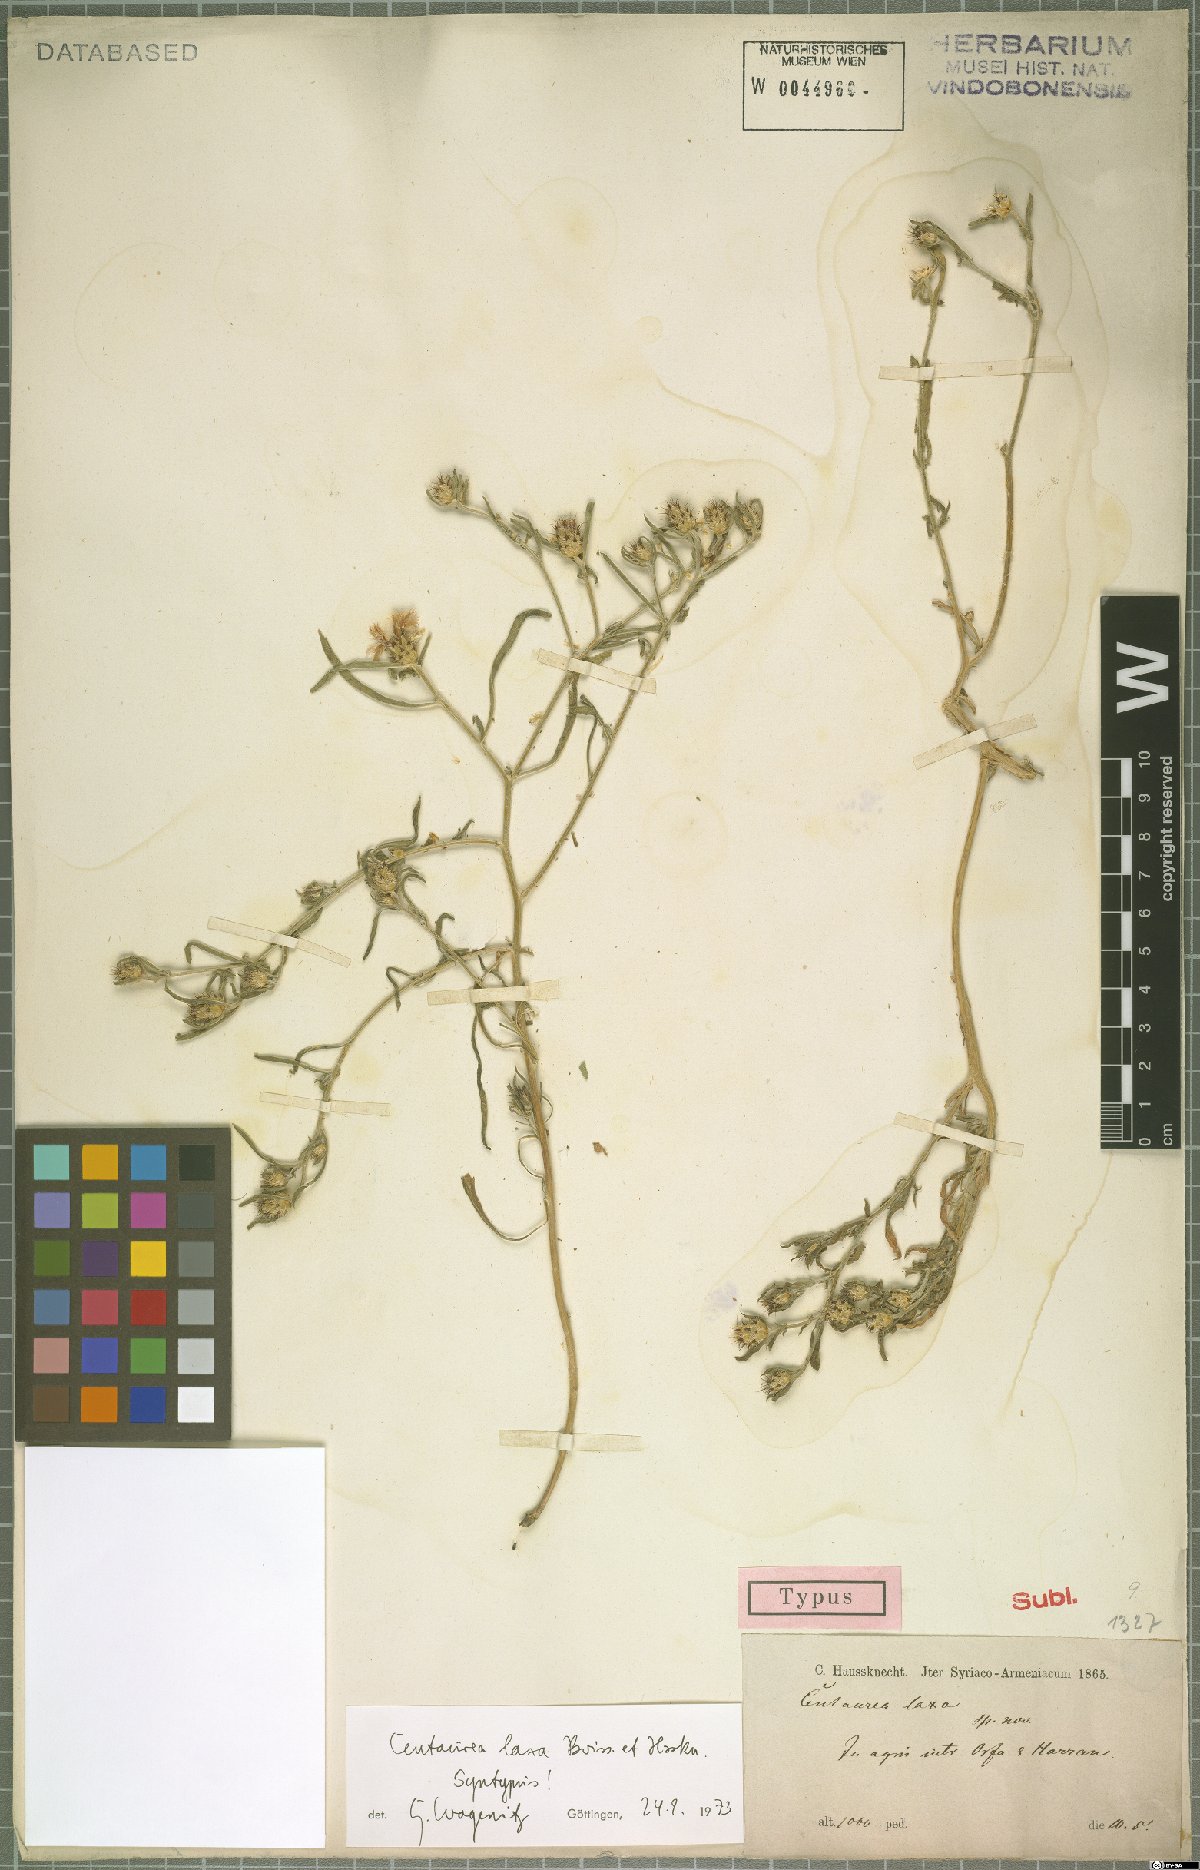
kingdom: Plantae
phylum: Tracheophyta
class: Magnoliopsida
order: Asterales
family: Asteraceae
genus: Centaurea
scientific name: Centaurea laxa
